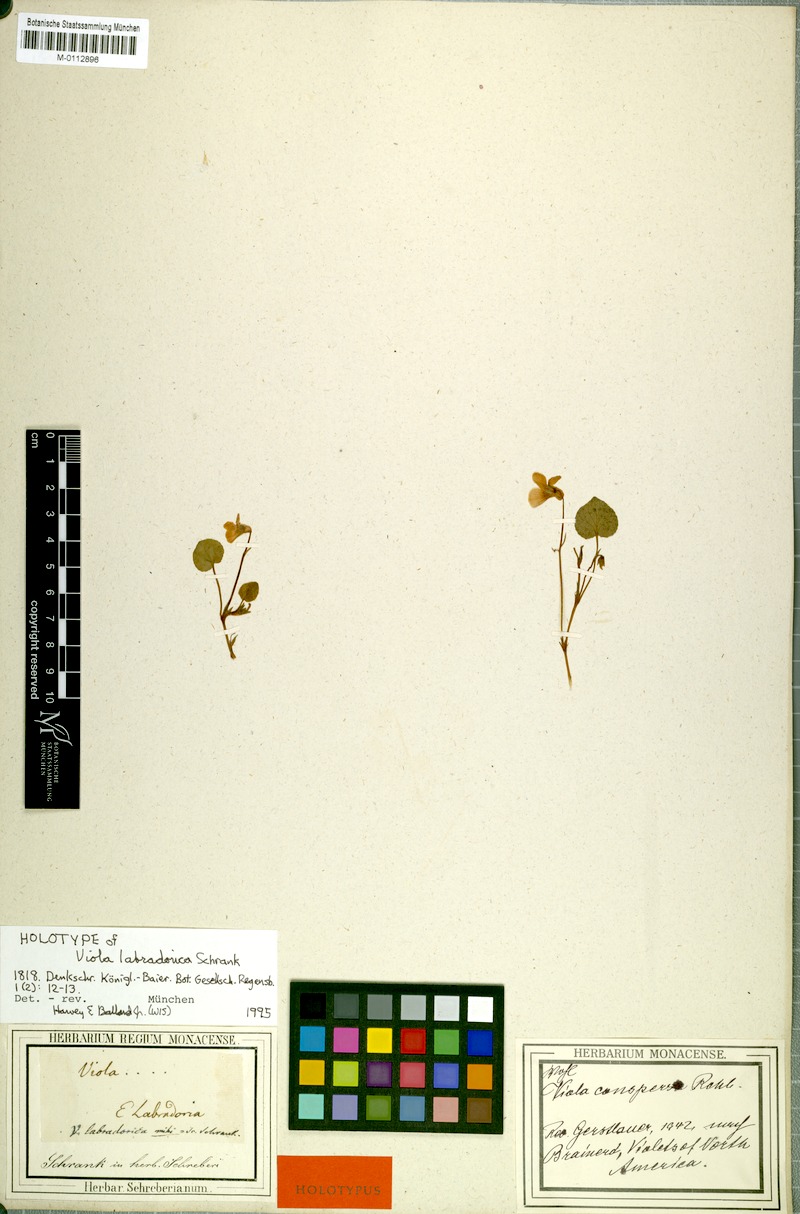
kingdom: Plantae
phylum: Tracheophyta
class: Magnoliopsida
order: Malpighiales
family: Violaceae
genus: Viola
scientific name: Viola labradorica
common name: Labrador violet
